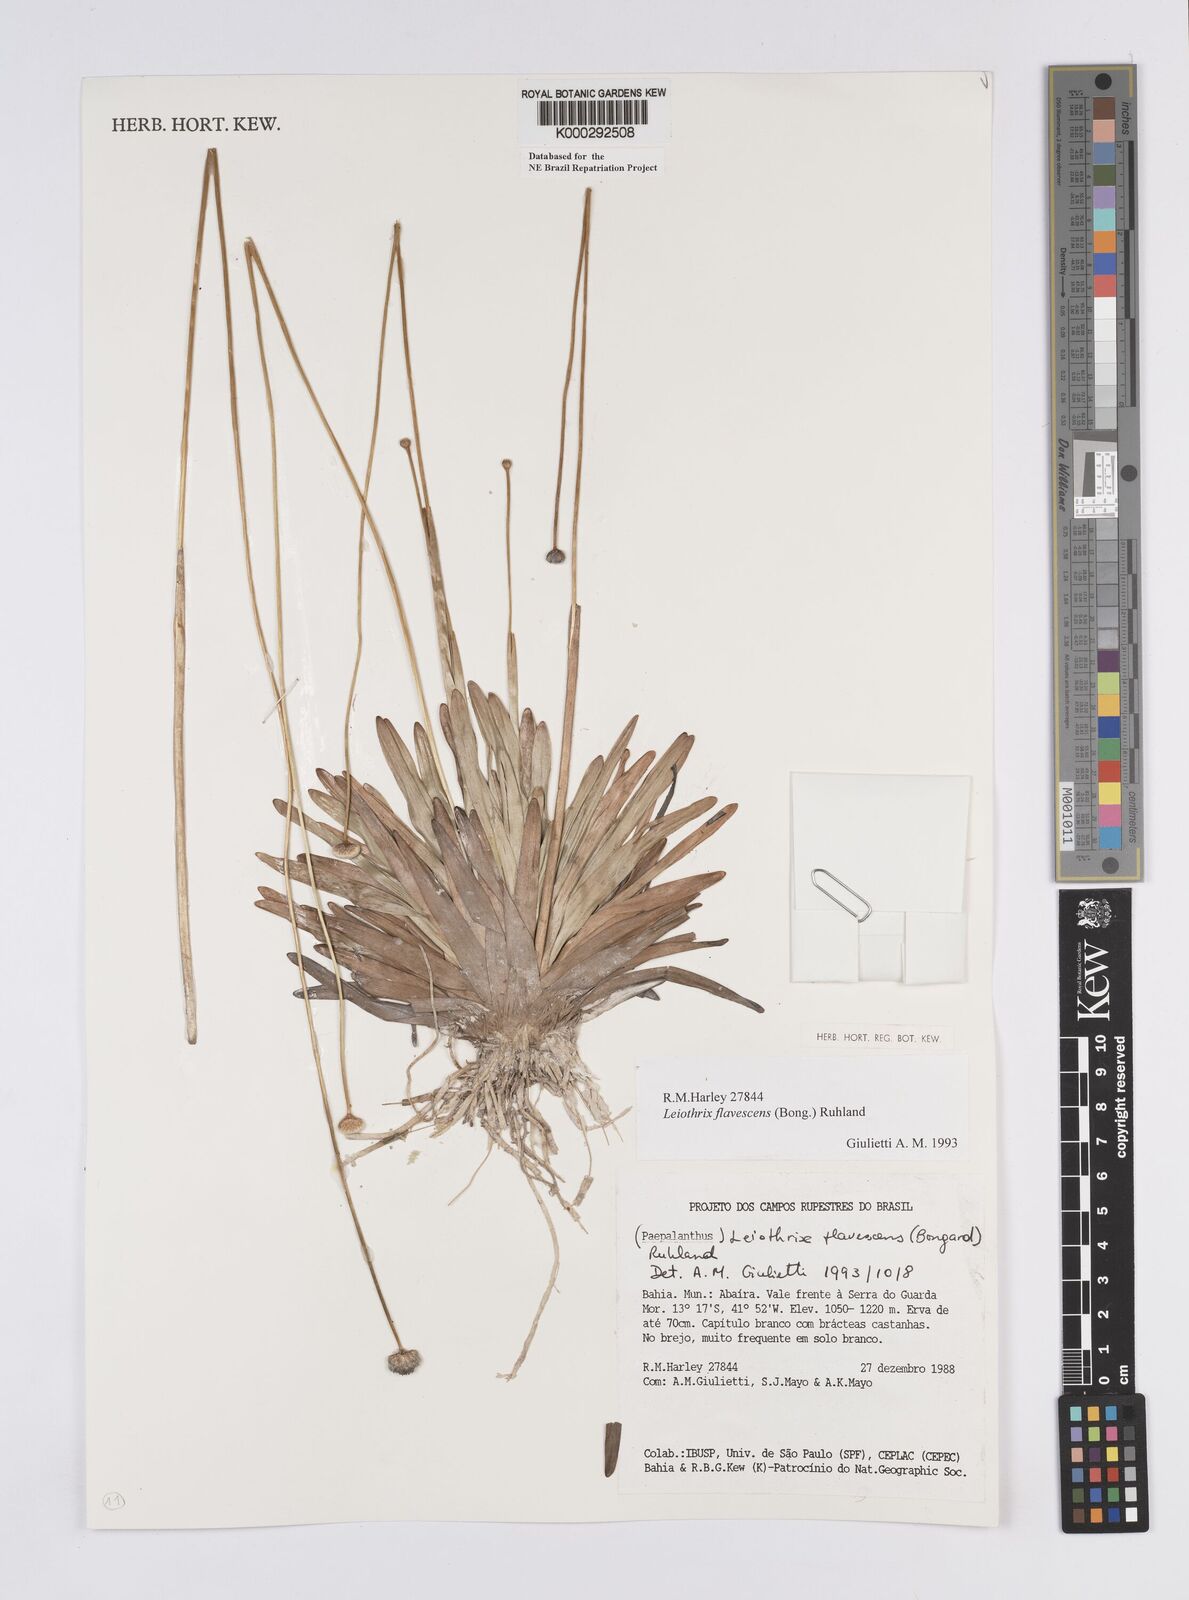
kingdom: Plantae
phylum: Tracheophyta
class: Liliopsida
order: Poales
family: Eriocaulaceae
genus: Leiothrix
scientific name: Leiothrix flavescens
